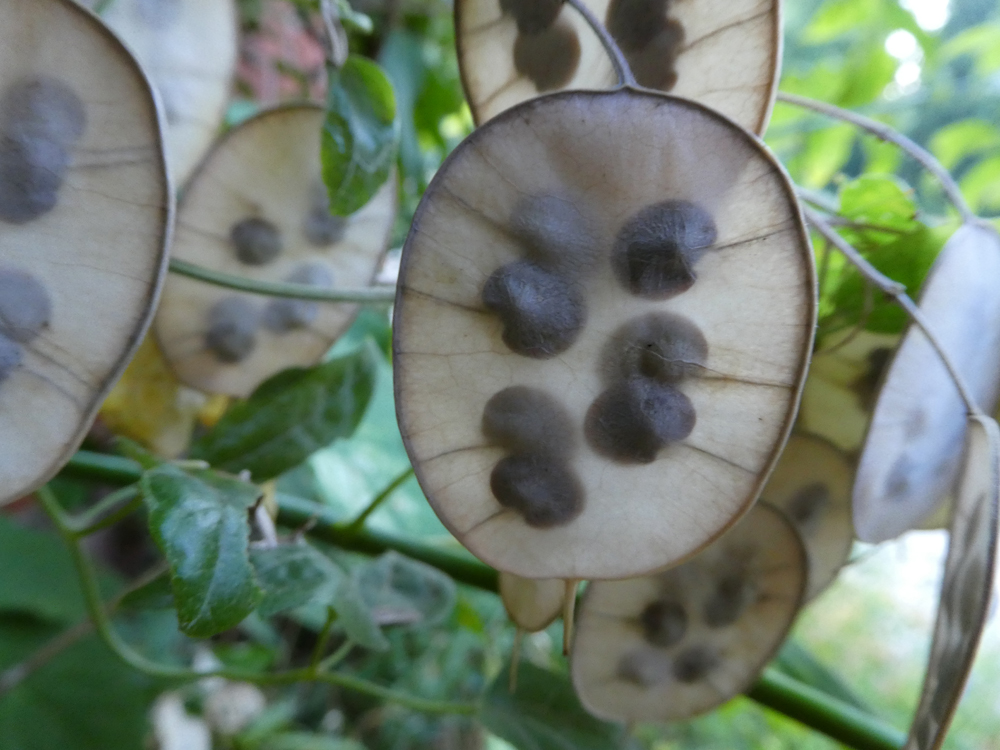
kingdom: Plantae
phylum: Tracheophyta
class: Magnoliopsida
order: Brassicales
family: Brassicaceae
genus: Lunaria
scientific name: Lunaria annua
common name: Honesty
